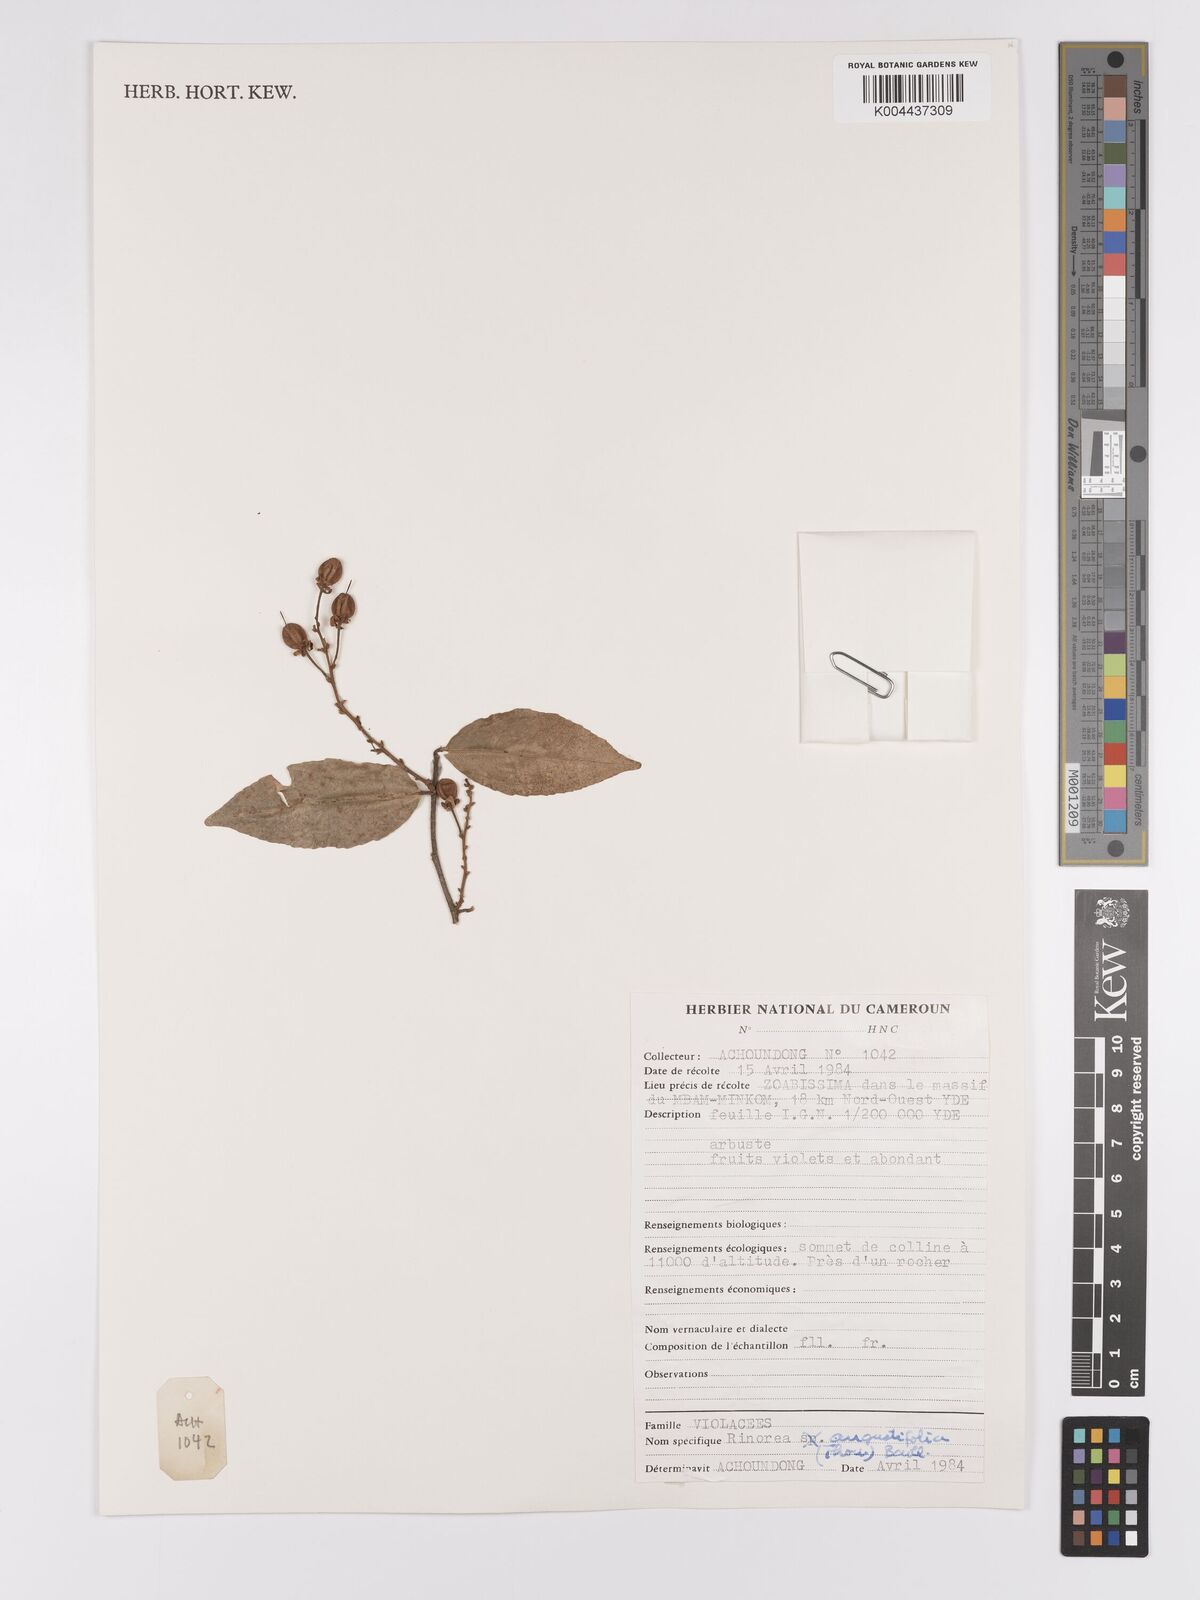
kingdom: Plantae
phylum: Tracheophyta
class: Magnoliopsida
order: Malpighiales
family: Violaceae
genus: Rinorea
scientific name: Rinorea angustifolia
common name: White violet-bush
